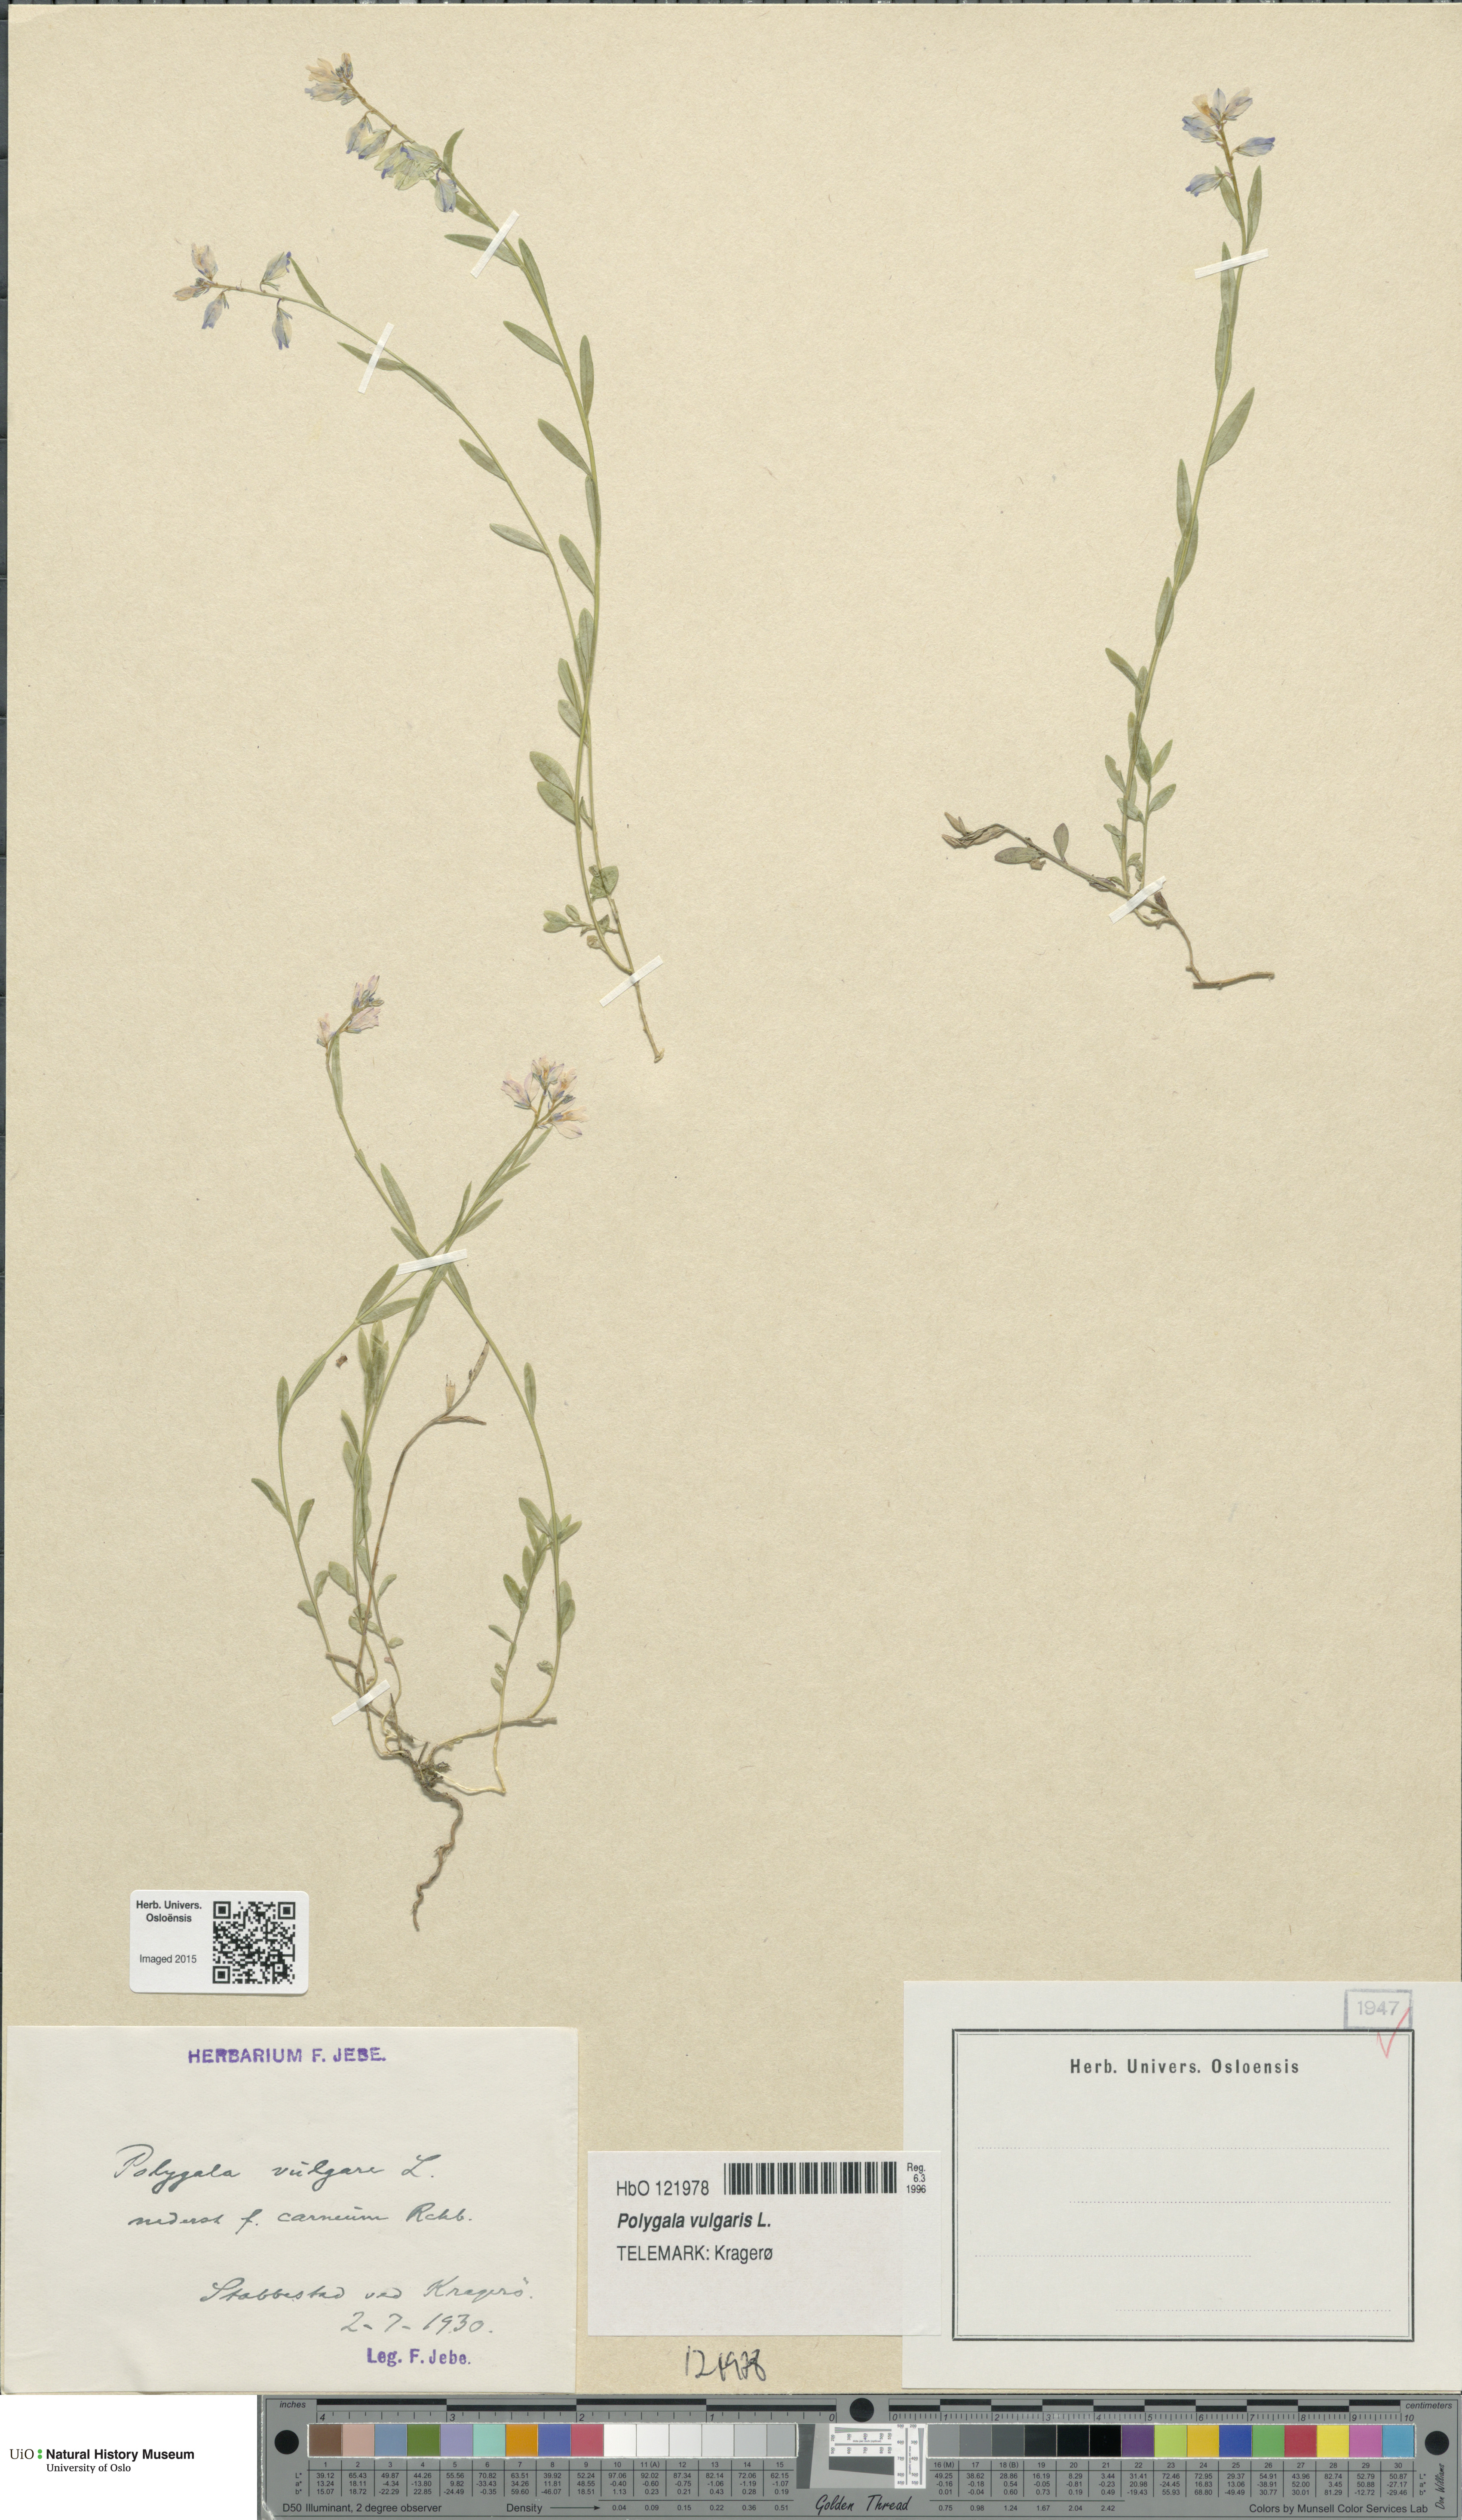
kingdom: Plantae
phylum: Tracheophyta
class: Magnoliopsida
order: Fabales
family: Polygalaceae
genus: Polygala
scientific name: Polygala vulgaris
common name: Common milkwort
